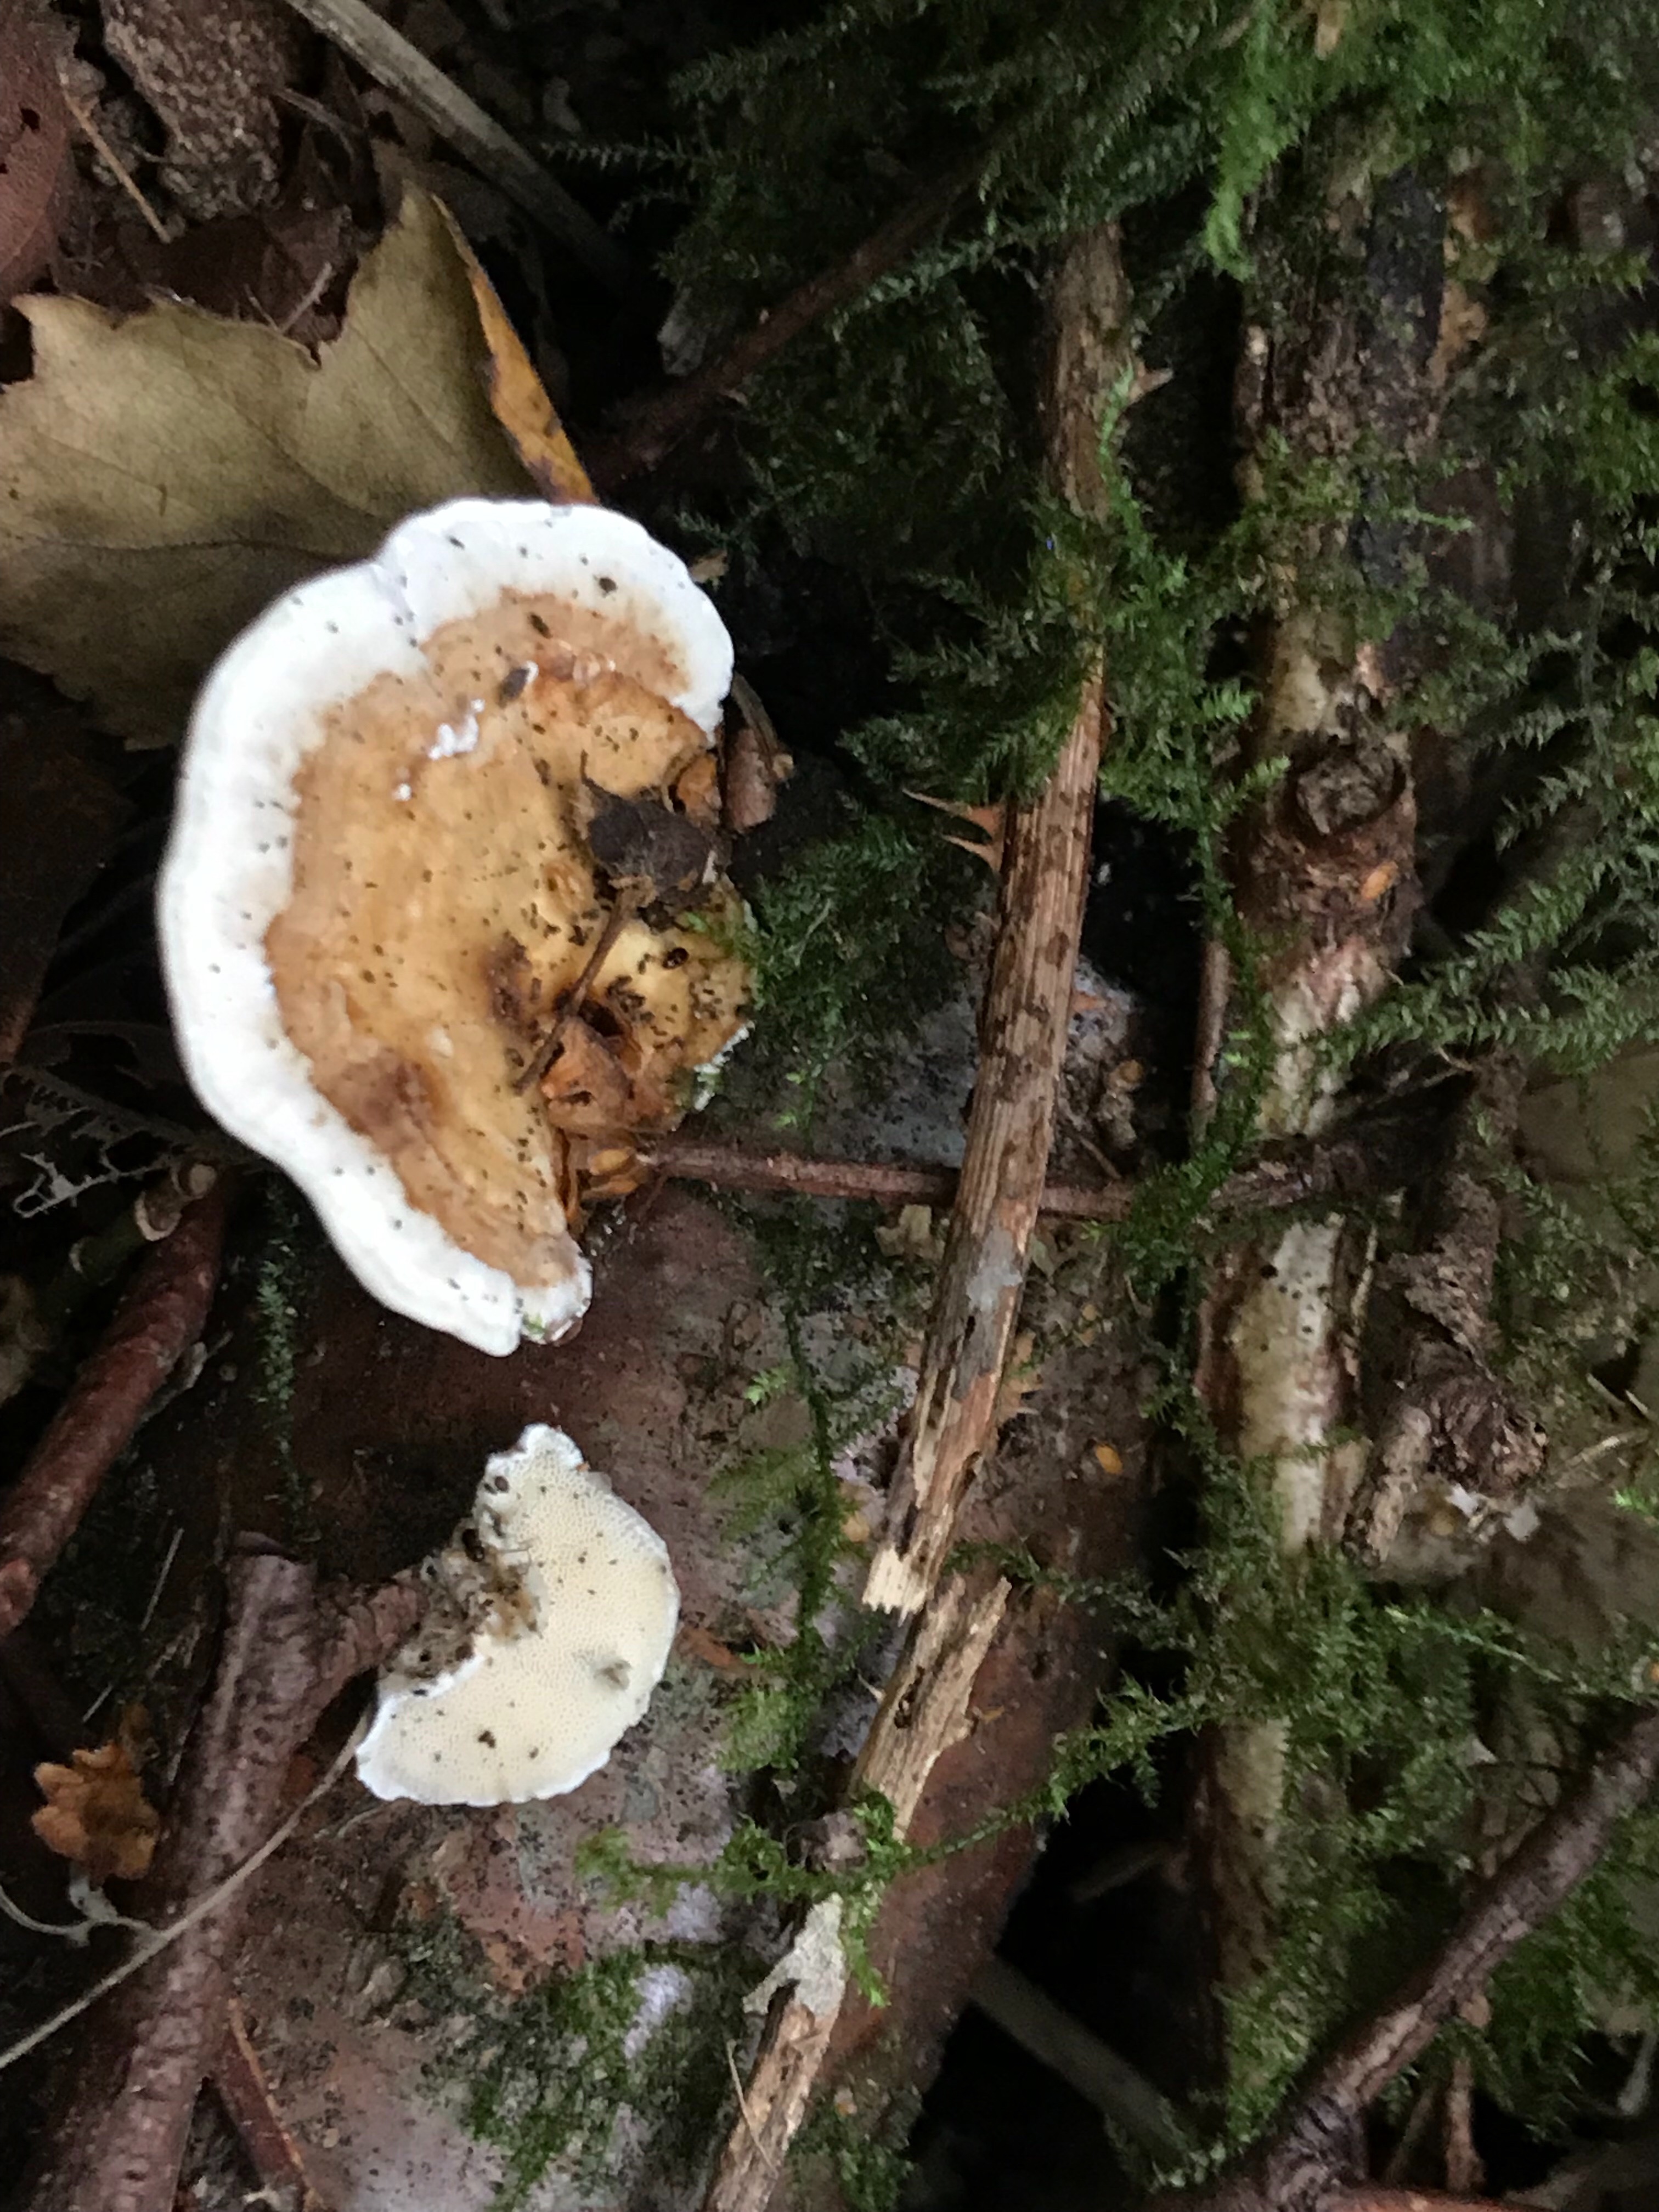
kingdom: Fungi
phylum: Basidiomycota
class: Agaricomycetes
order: Polyporales
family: Fomitopsidaceae
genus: Fomitopsis
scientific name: Fomitopsis pinicola
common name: randbæltet hovporesvamp
